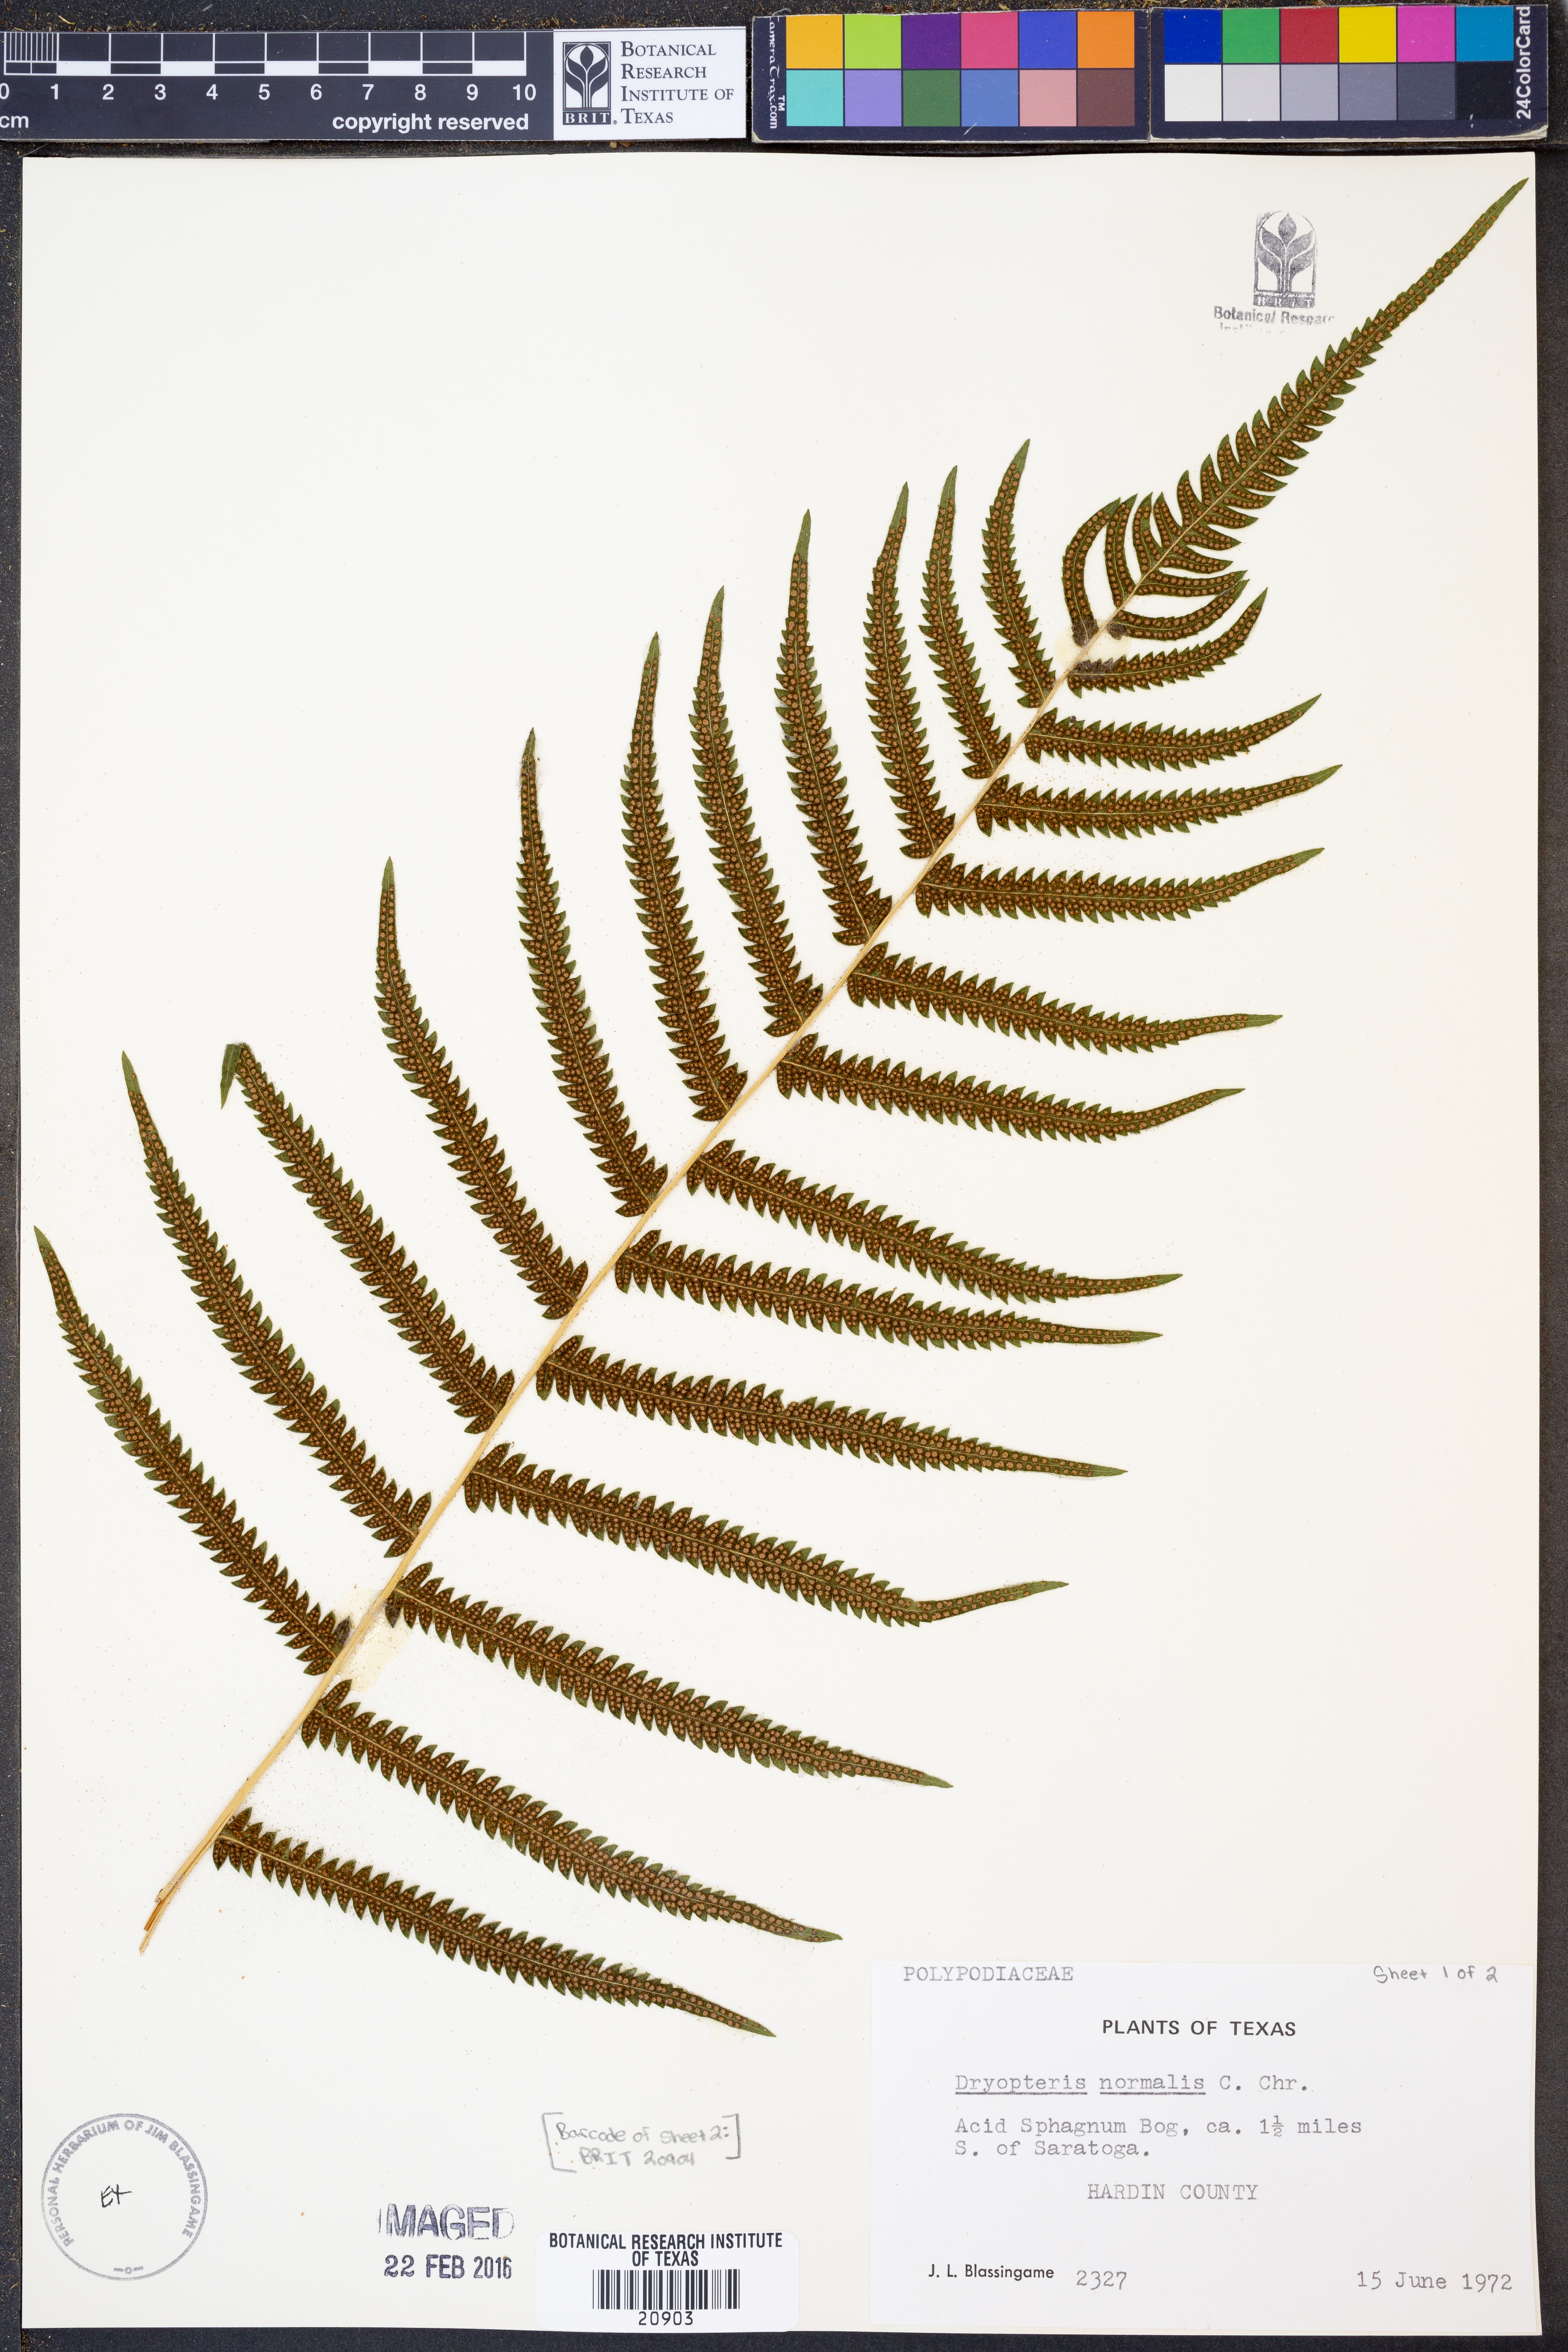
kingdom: Plantae
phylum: Tracheophyta
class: Polypodiopsida
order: Polypodiales
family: Thelypteridaceae
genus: Pelazoneuron
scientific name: Pelazoneuron kunthii
